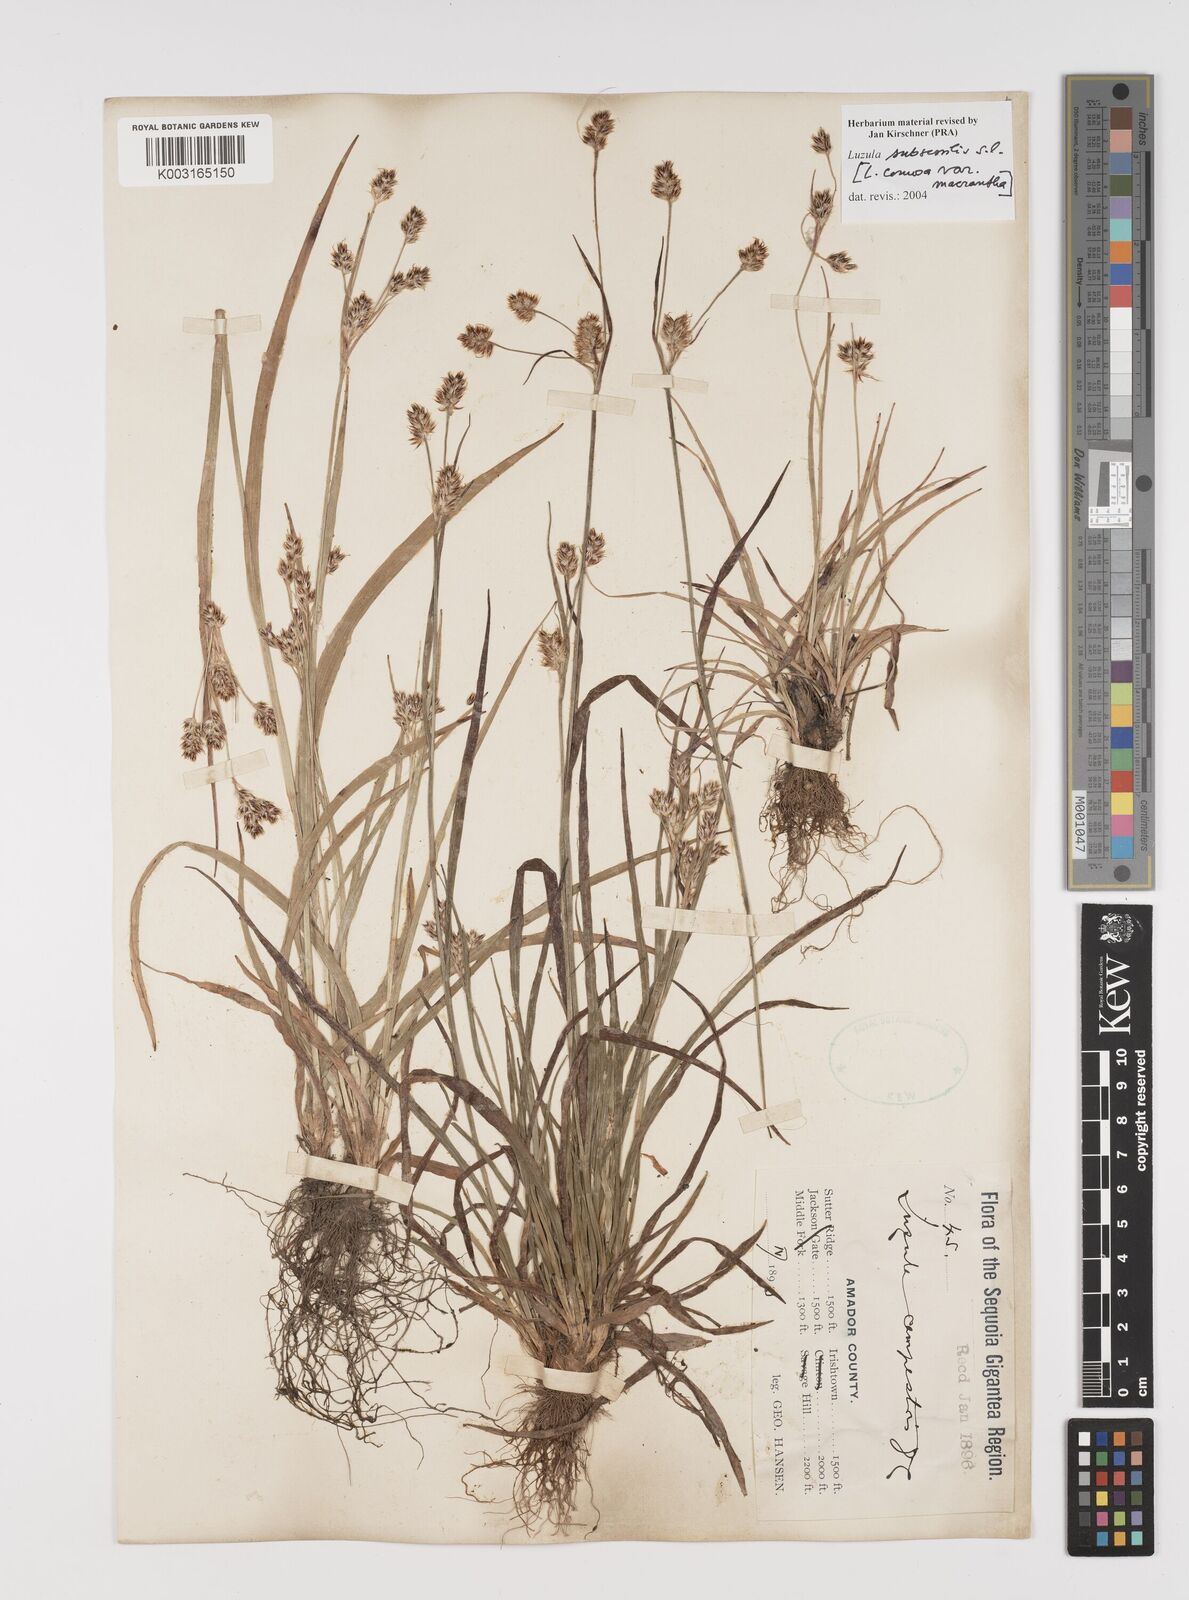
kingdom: Plantae
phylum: Tracheophyta
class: Liliopsida
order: Poales
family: Juncaceae
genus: Luzula
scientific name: Luzula macrantha
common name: Large-anthered woodrush
